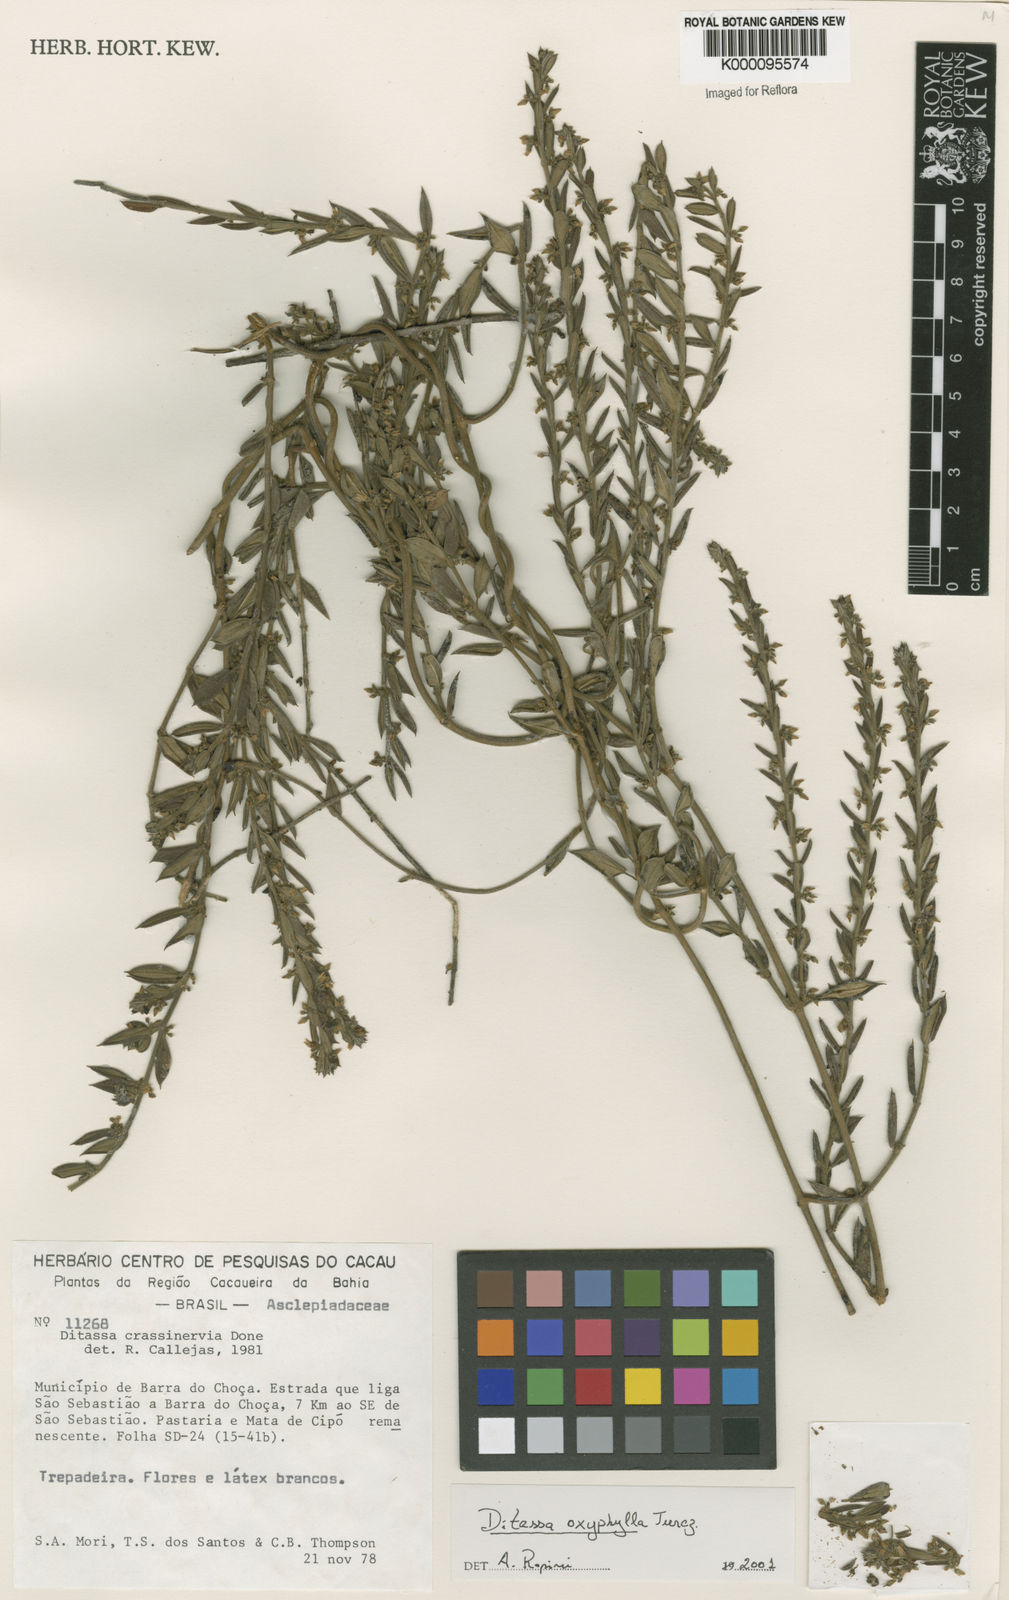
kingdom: Plantae
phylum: Tracheophyta
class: Magnoliopsida
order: Gentianales
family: Apocynaceae
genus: Ditassa
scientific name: Ditassa oxyphylla
